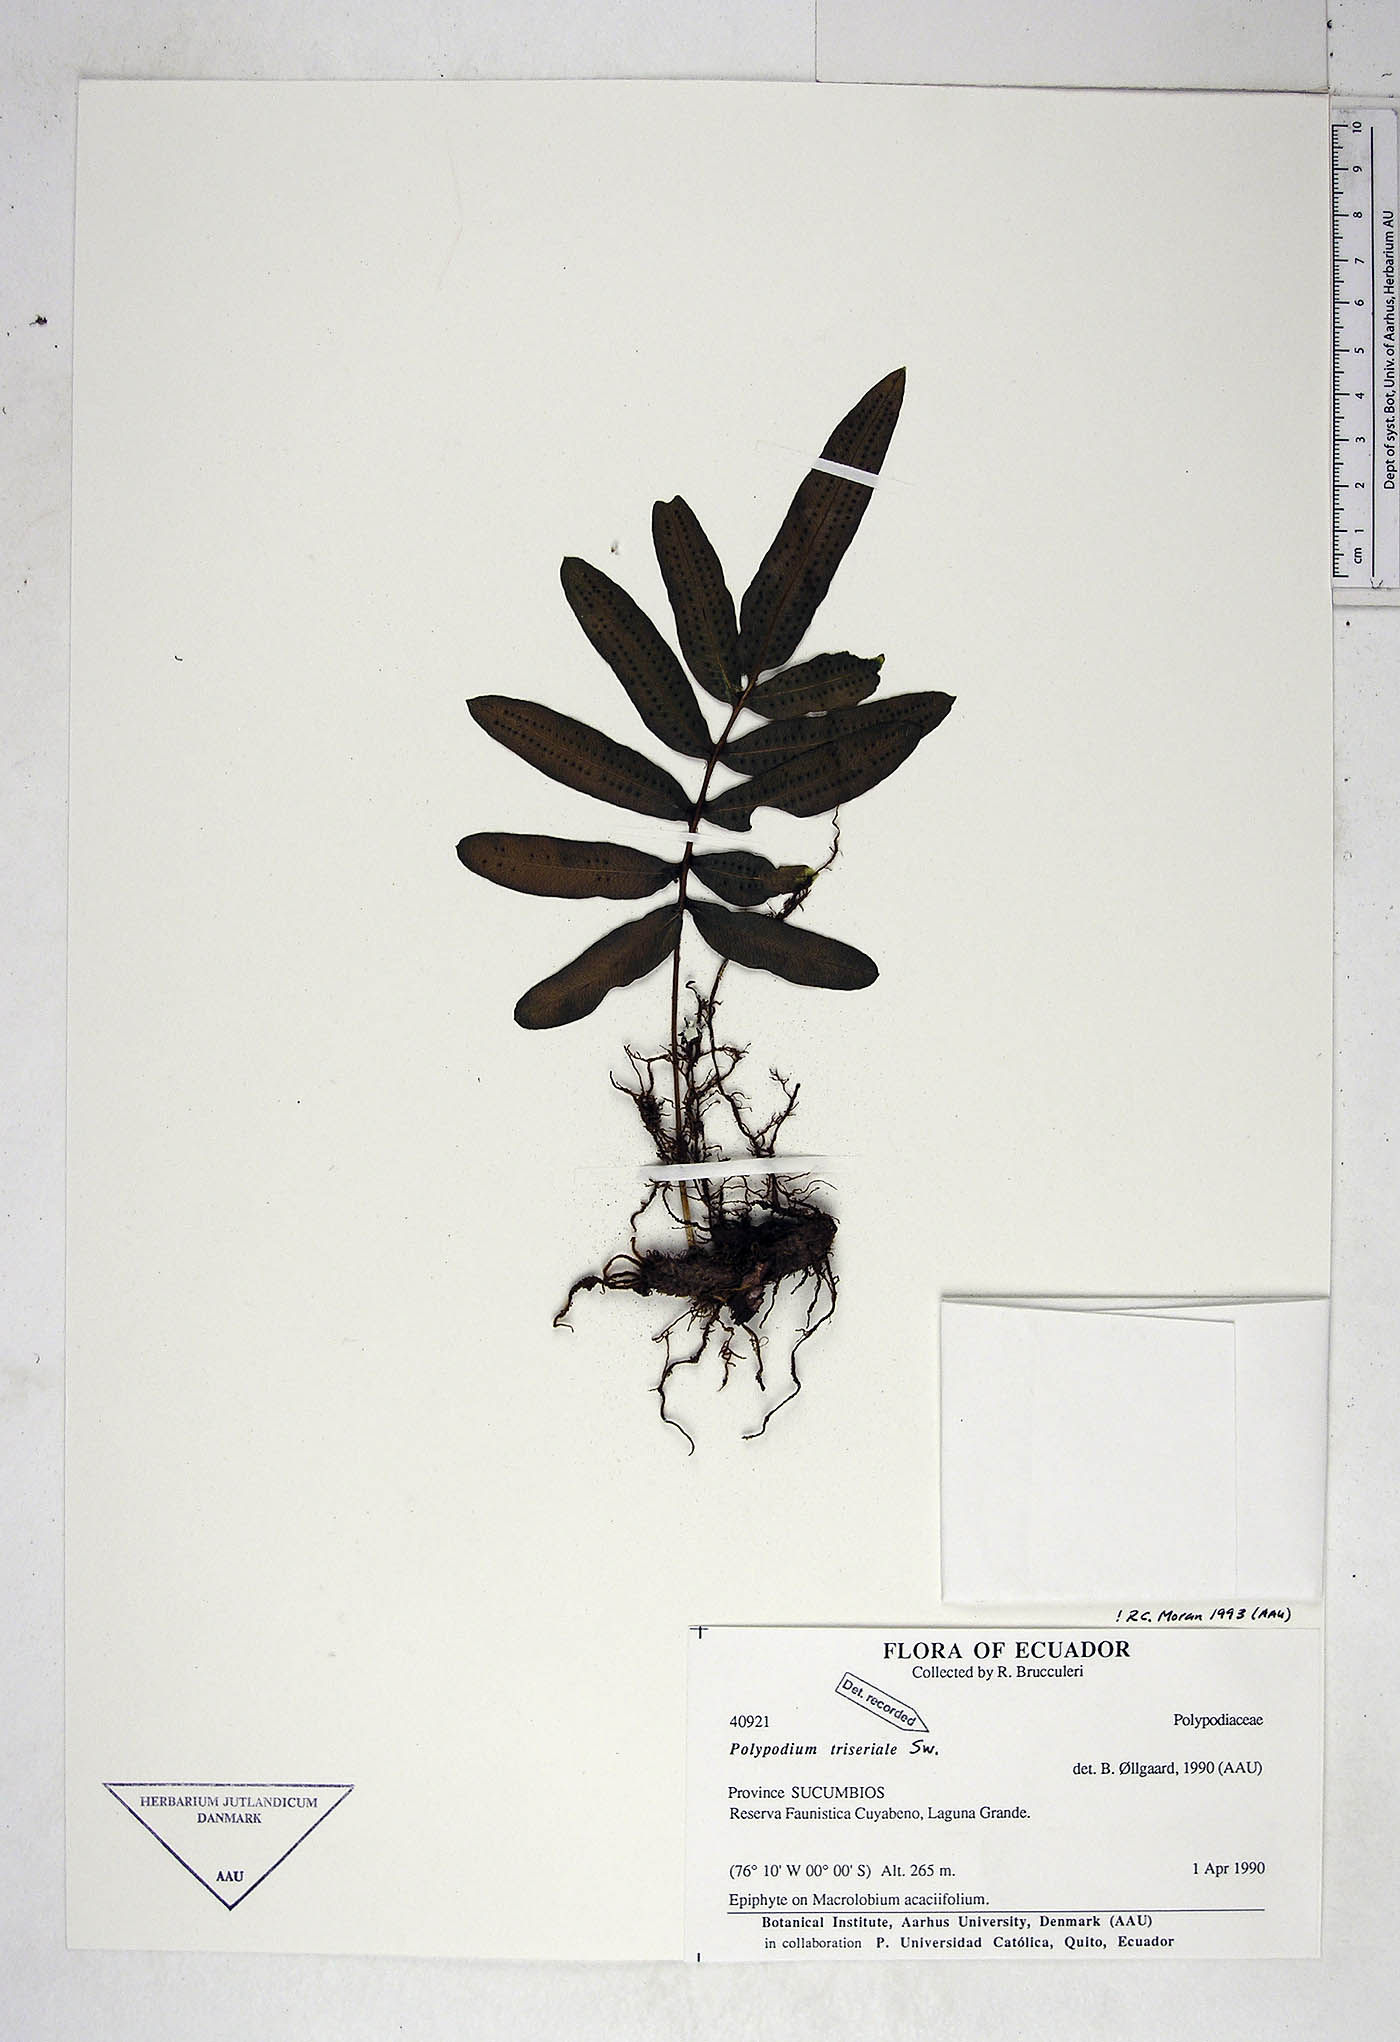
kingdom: Plantae
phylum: Tracheophyta
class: Polypodiopsida
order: Polypodiales
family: Polypodiaceae
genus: Serpocaulon
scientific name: Serpocaulon triseriale
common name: Angle-vein fern
